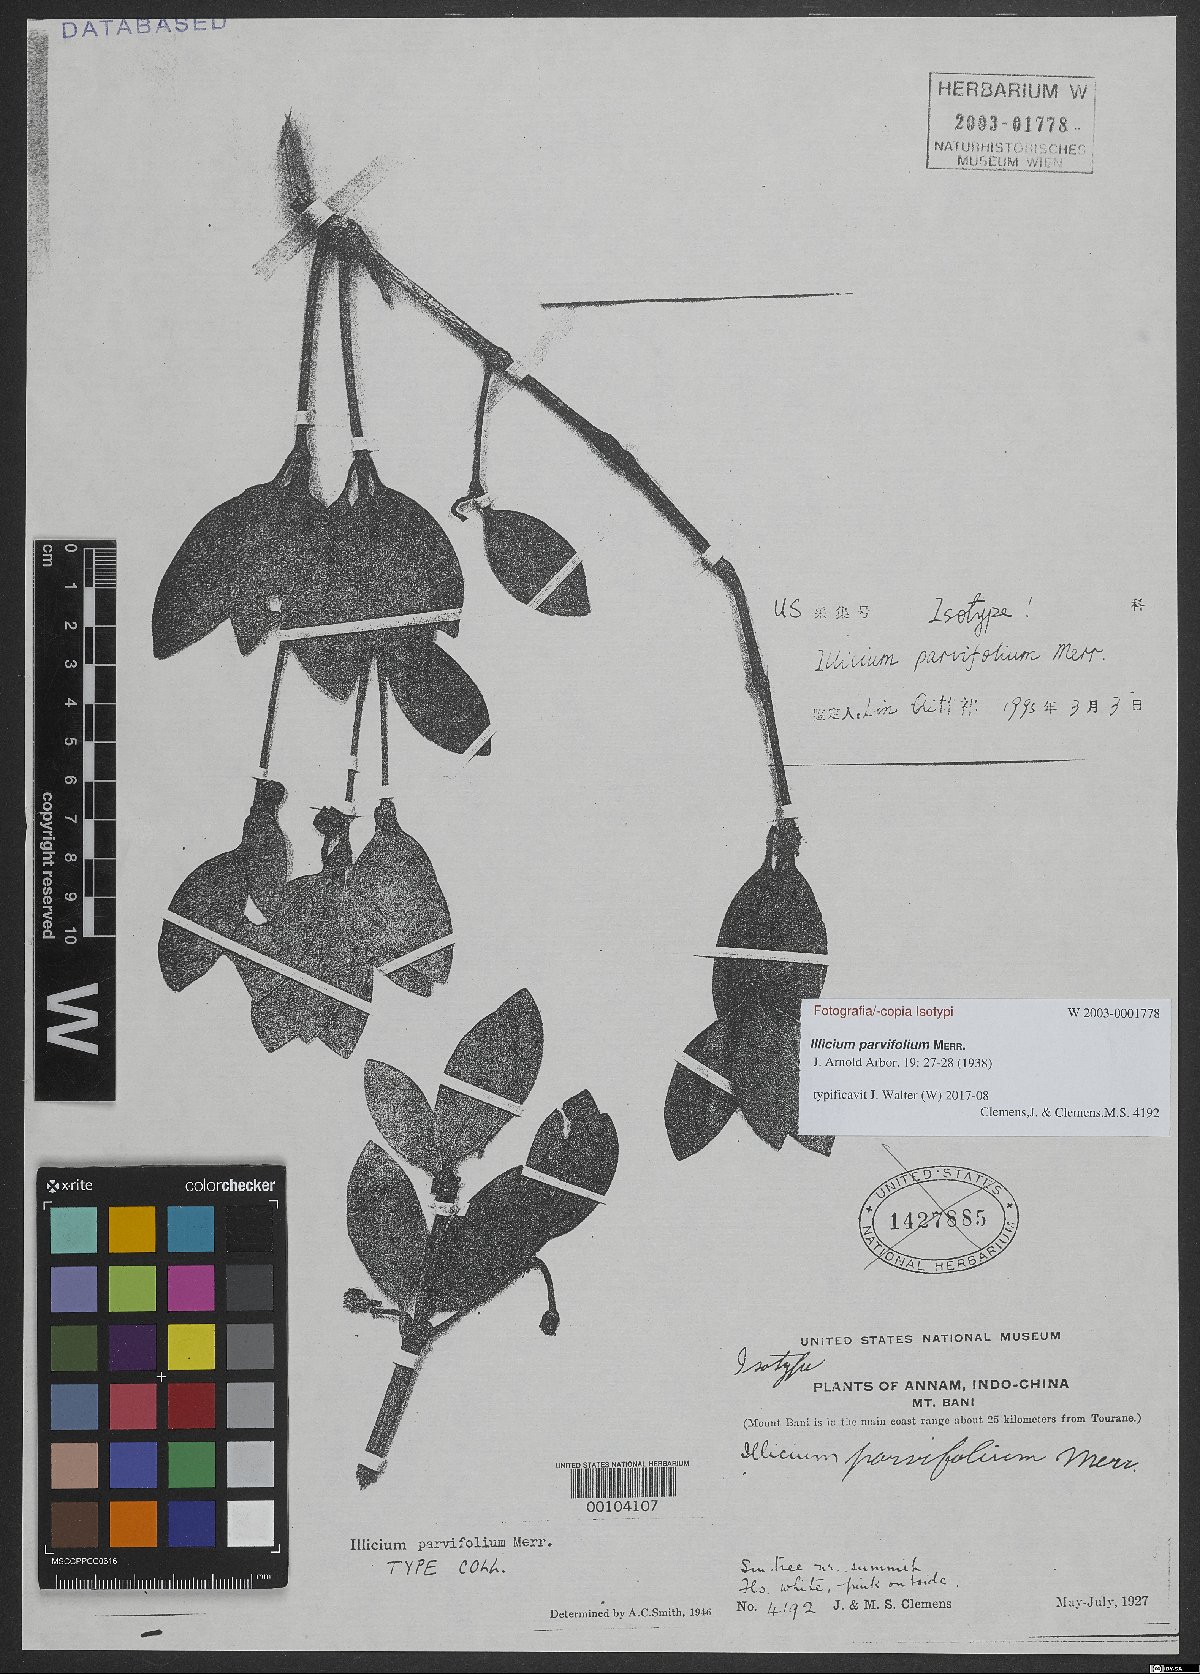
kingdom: Plantae
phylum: Tracheophyta
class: Magnoliopsida
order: Austrobaileyales
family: Schisandraceae
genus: Illicium
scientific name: Illicium parvifolium
